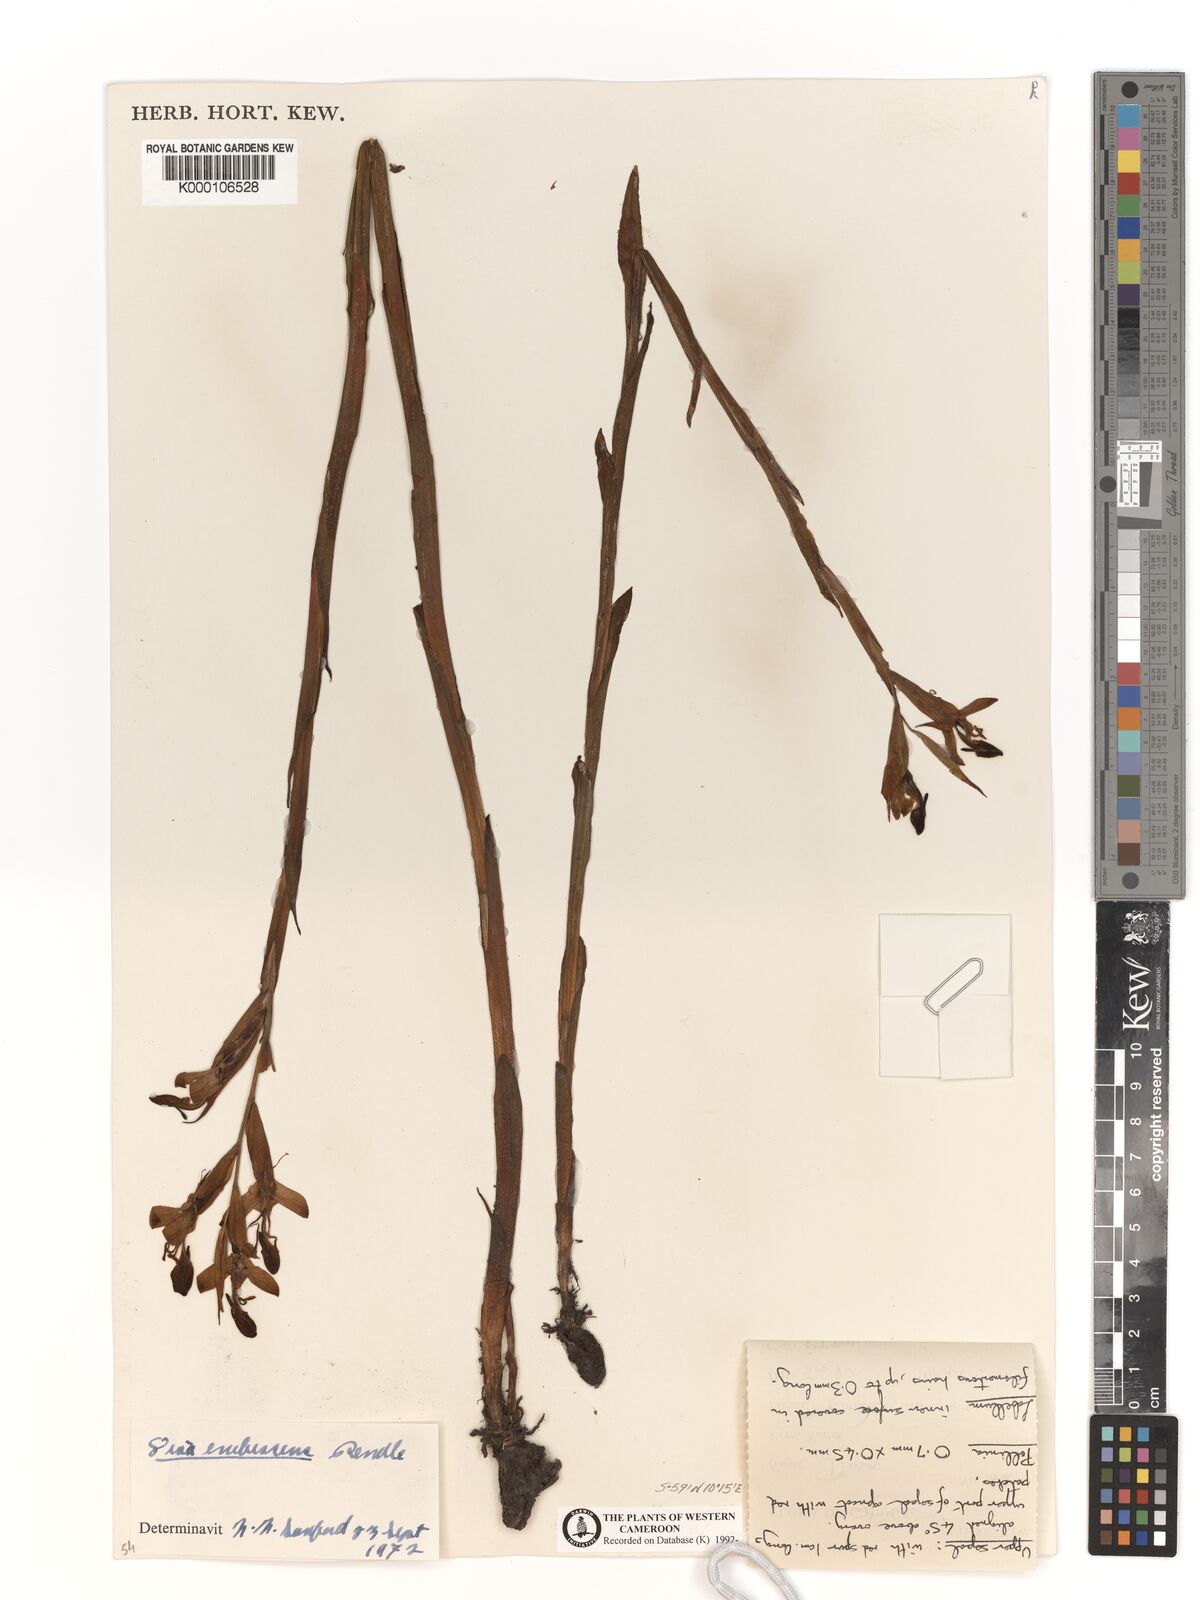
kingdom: Plantae
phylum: Tracheophyta
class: Liliopsida
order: Asparagales
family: Orchidaceae
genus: Disa
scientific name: Disa erubescens
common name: The rose disa
